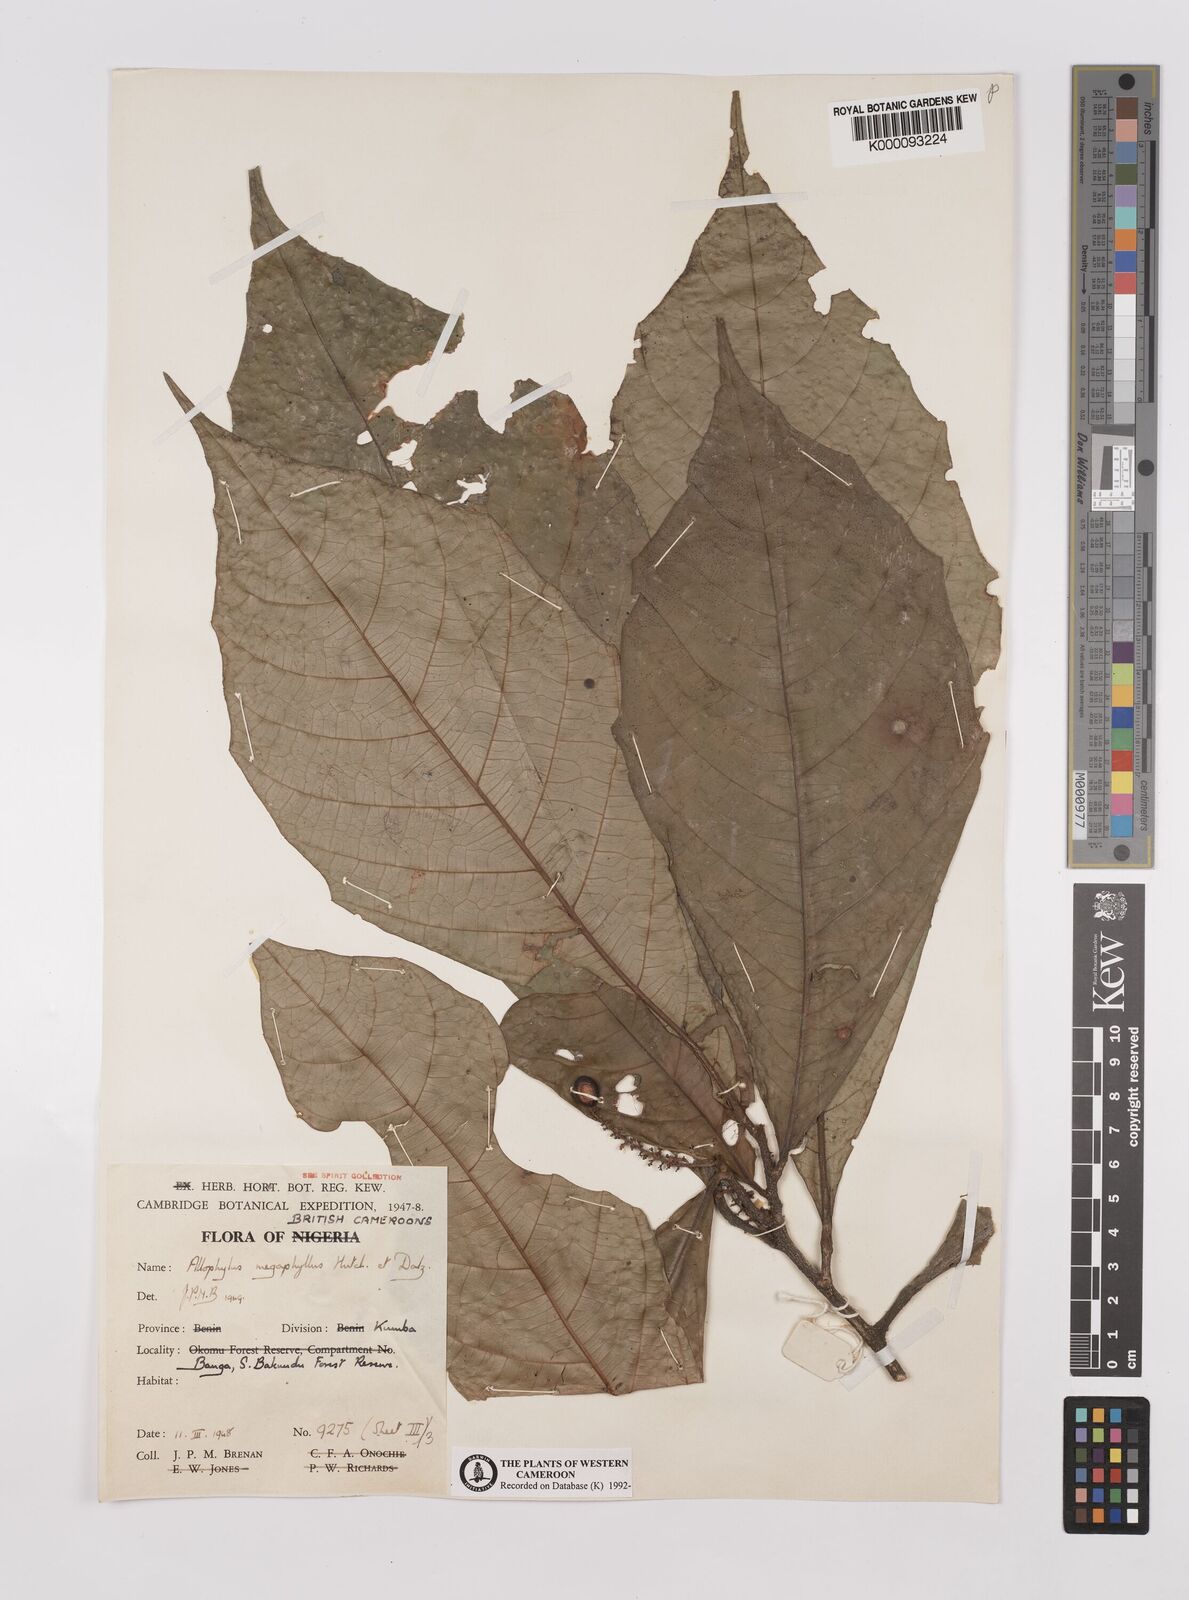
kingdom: Plantae
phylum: Tracheophyta
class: Magnoliopsida
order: Sapindales
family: Sapindaceae
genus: Allophylus
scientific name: Allophylus megaphyllus
